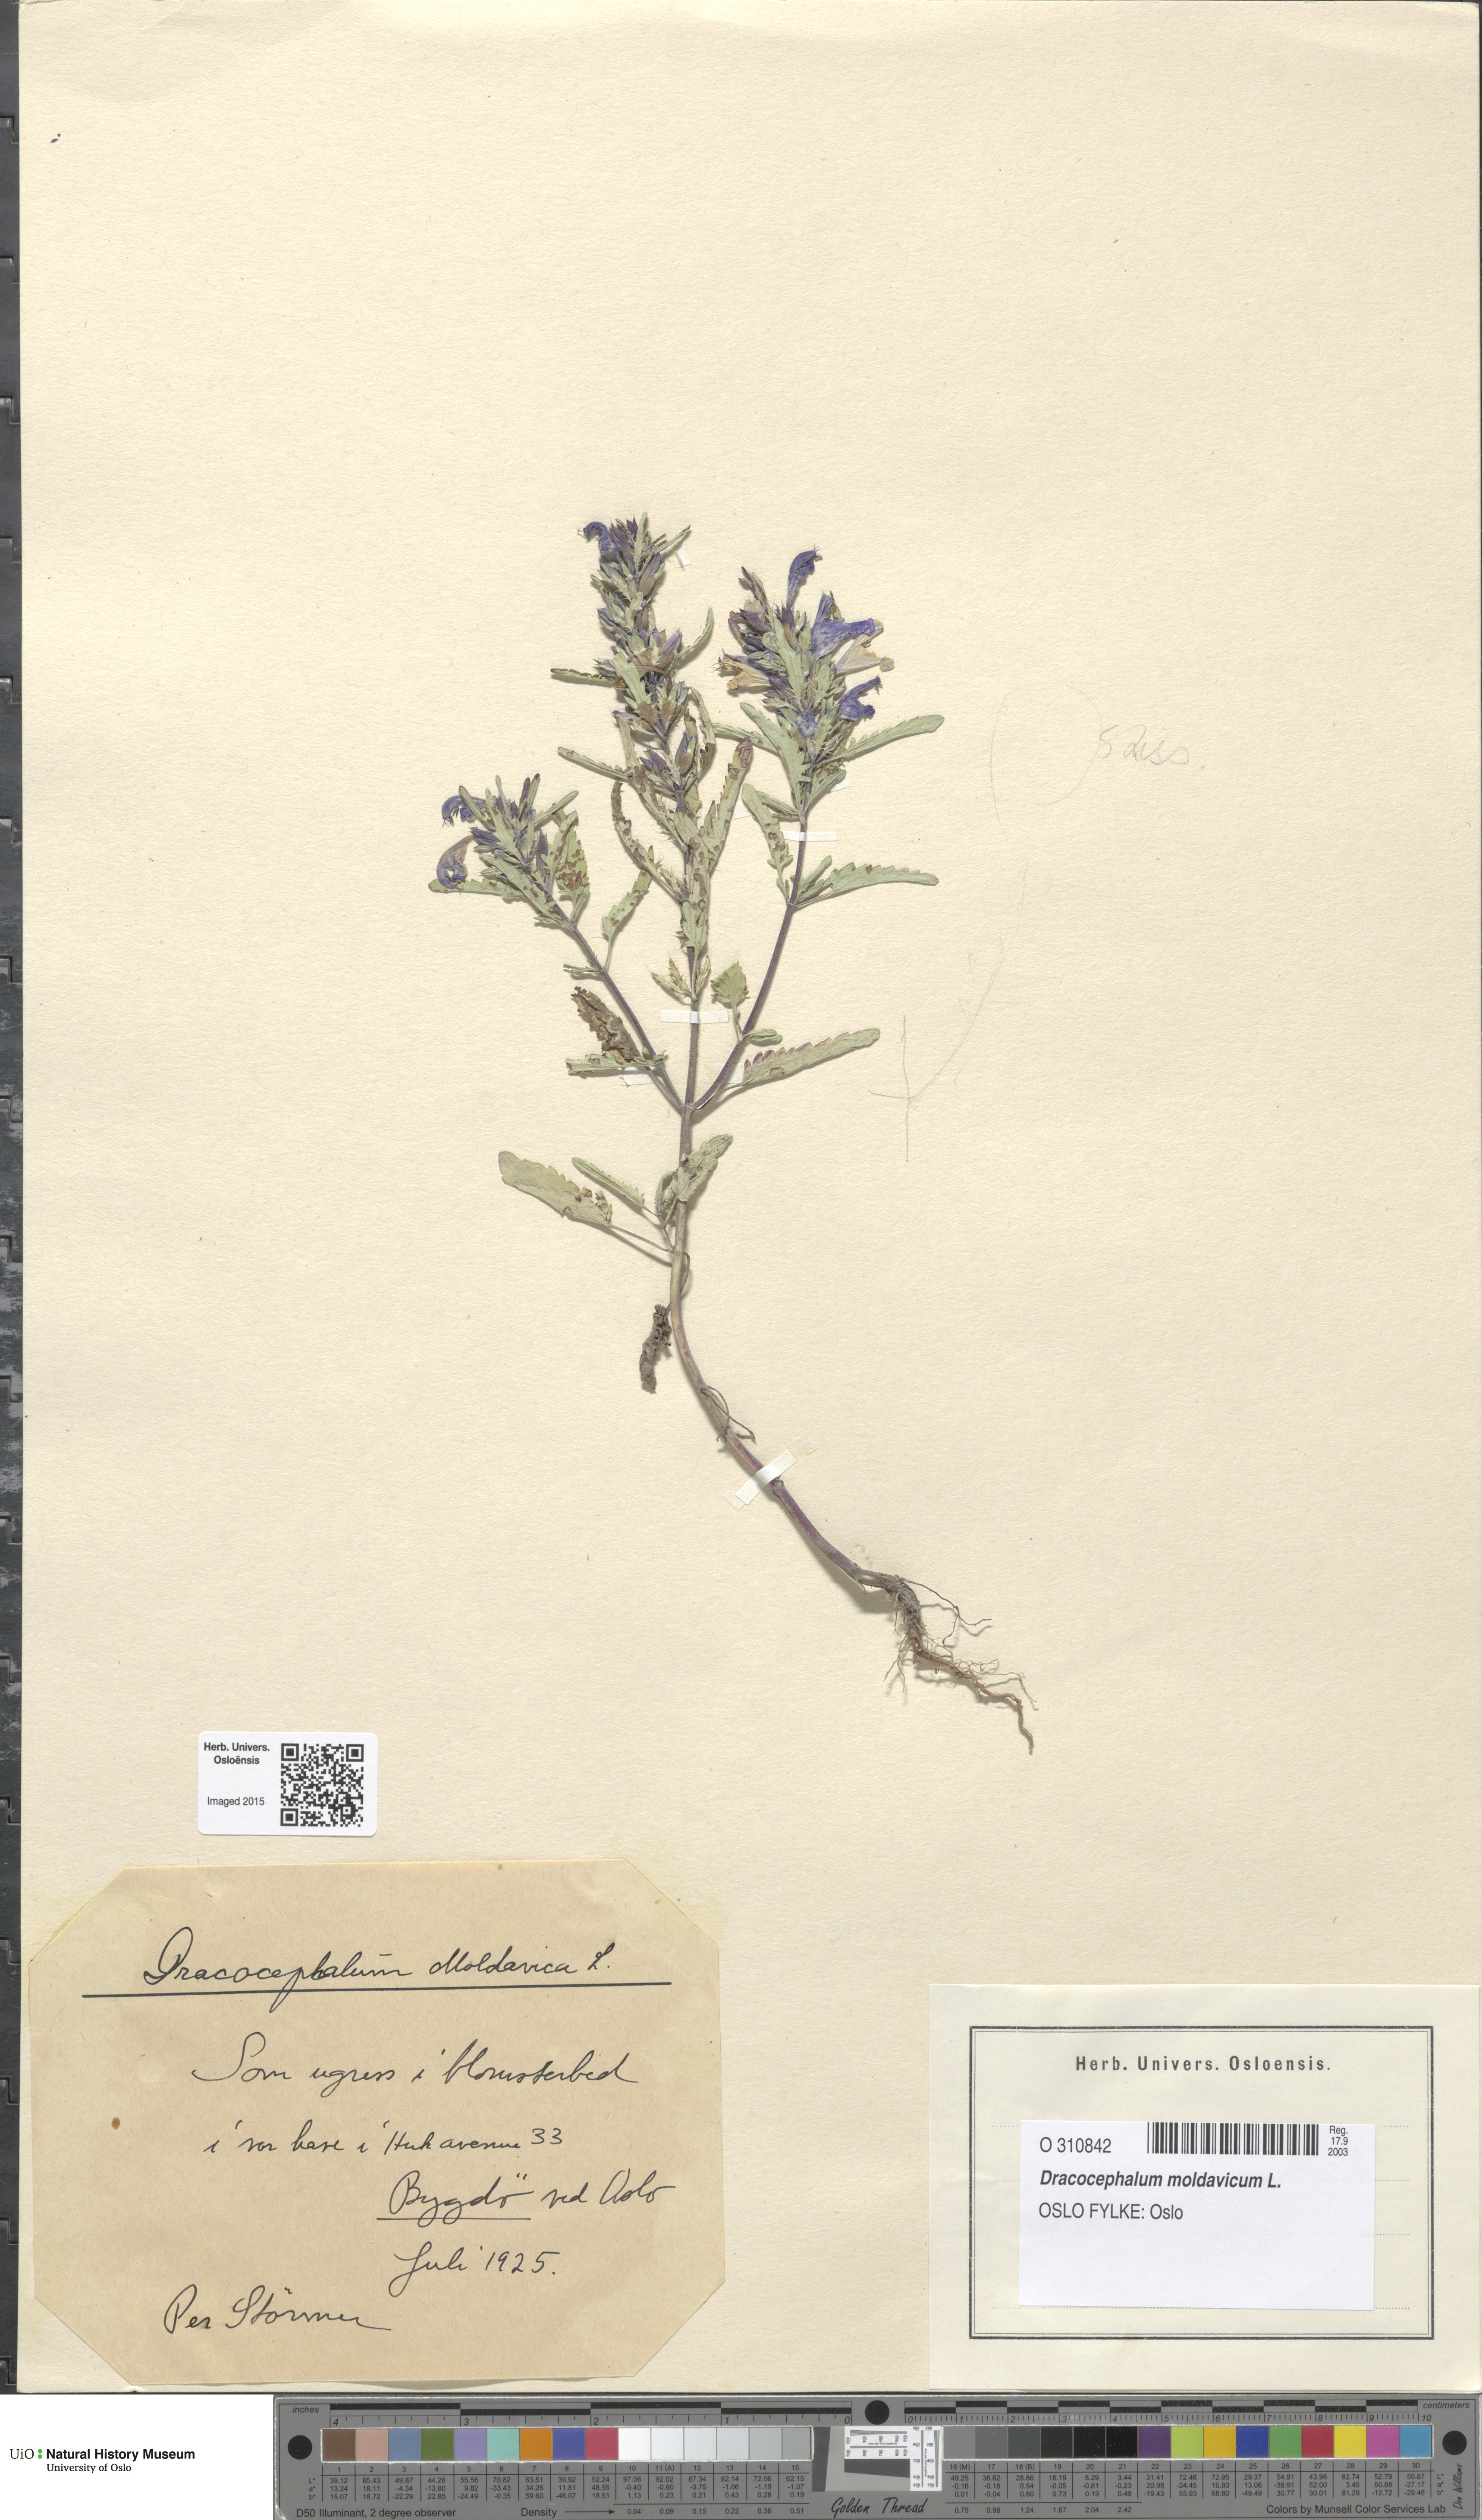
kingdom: Plantae
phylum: Tracheophyta
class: Magnoliopsida
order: Lamiales
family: Lamiaceae
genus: Dracocephalum
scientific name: Dracocephalum moldavica
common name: Moldavian dragonhead
